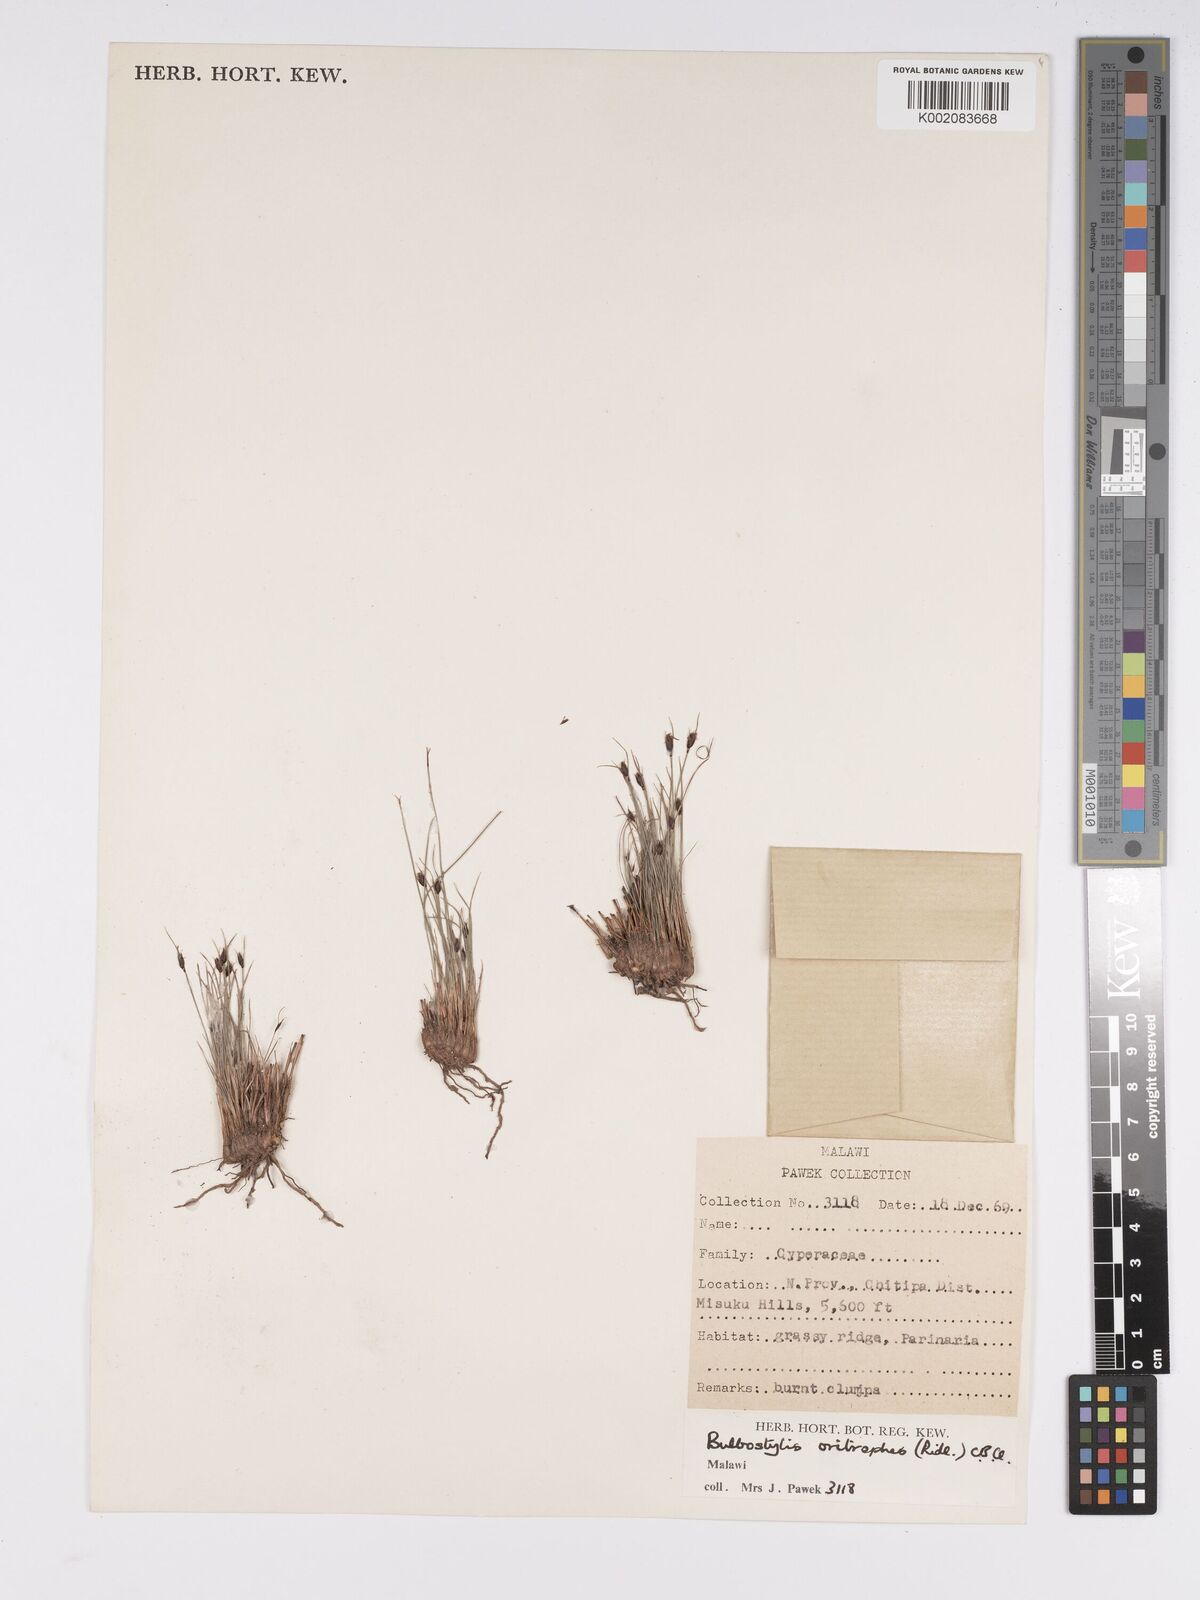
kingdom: Plantae
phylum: Tracheophyta
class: Liliopsida
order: Poales
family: Cyperaceae
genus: Bulbostylis
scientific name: Bulbostylis oritrephes
